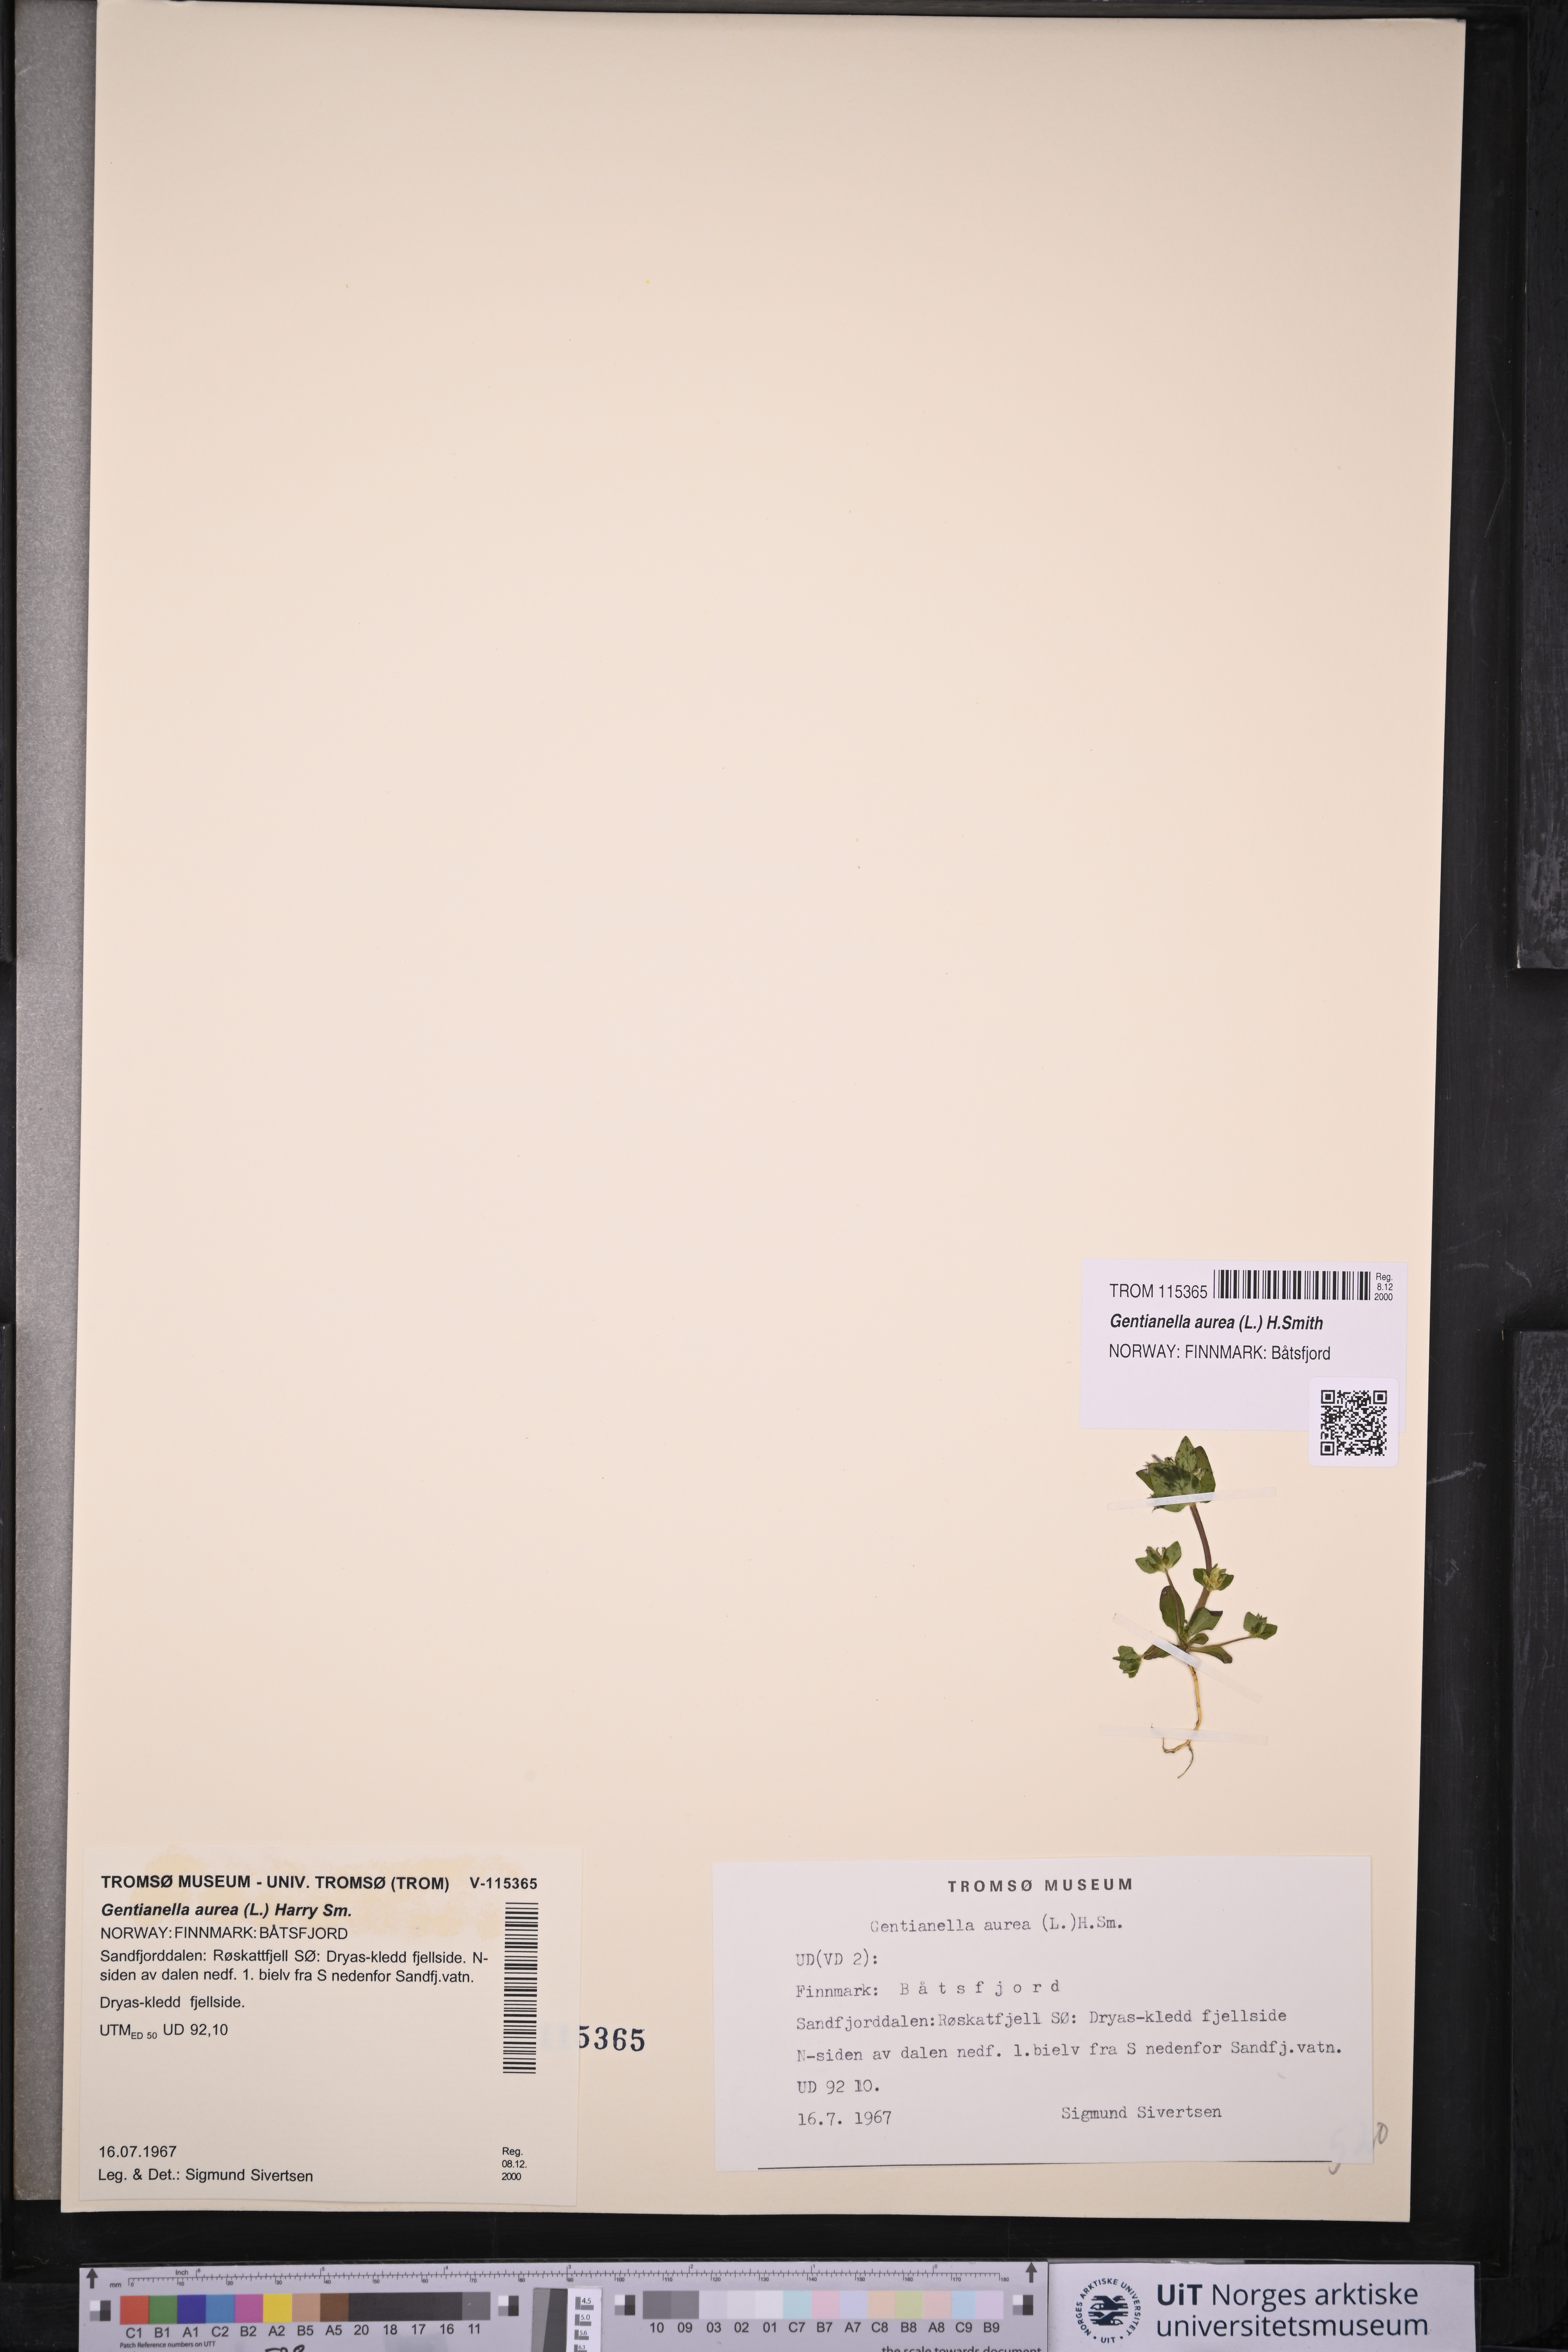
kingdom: Plantae
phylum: Tracheophyta
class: Magnoliopsida
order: Gentianales
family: Gentianaceae
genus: Gentianella
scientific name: Gentianella aurea
